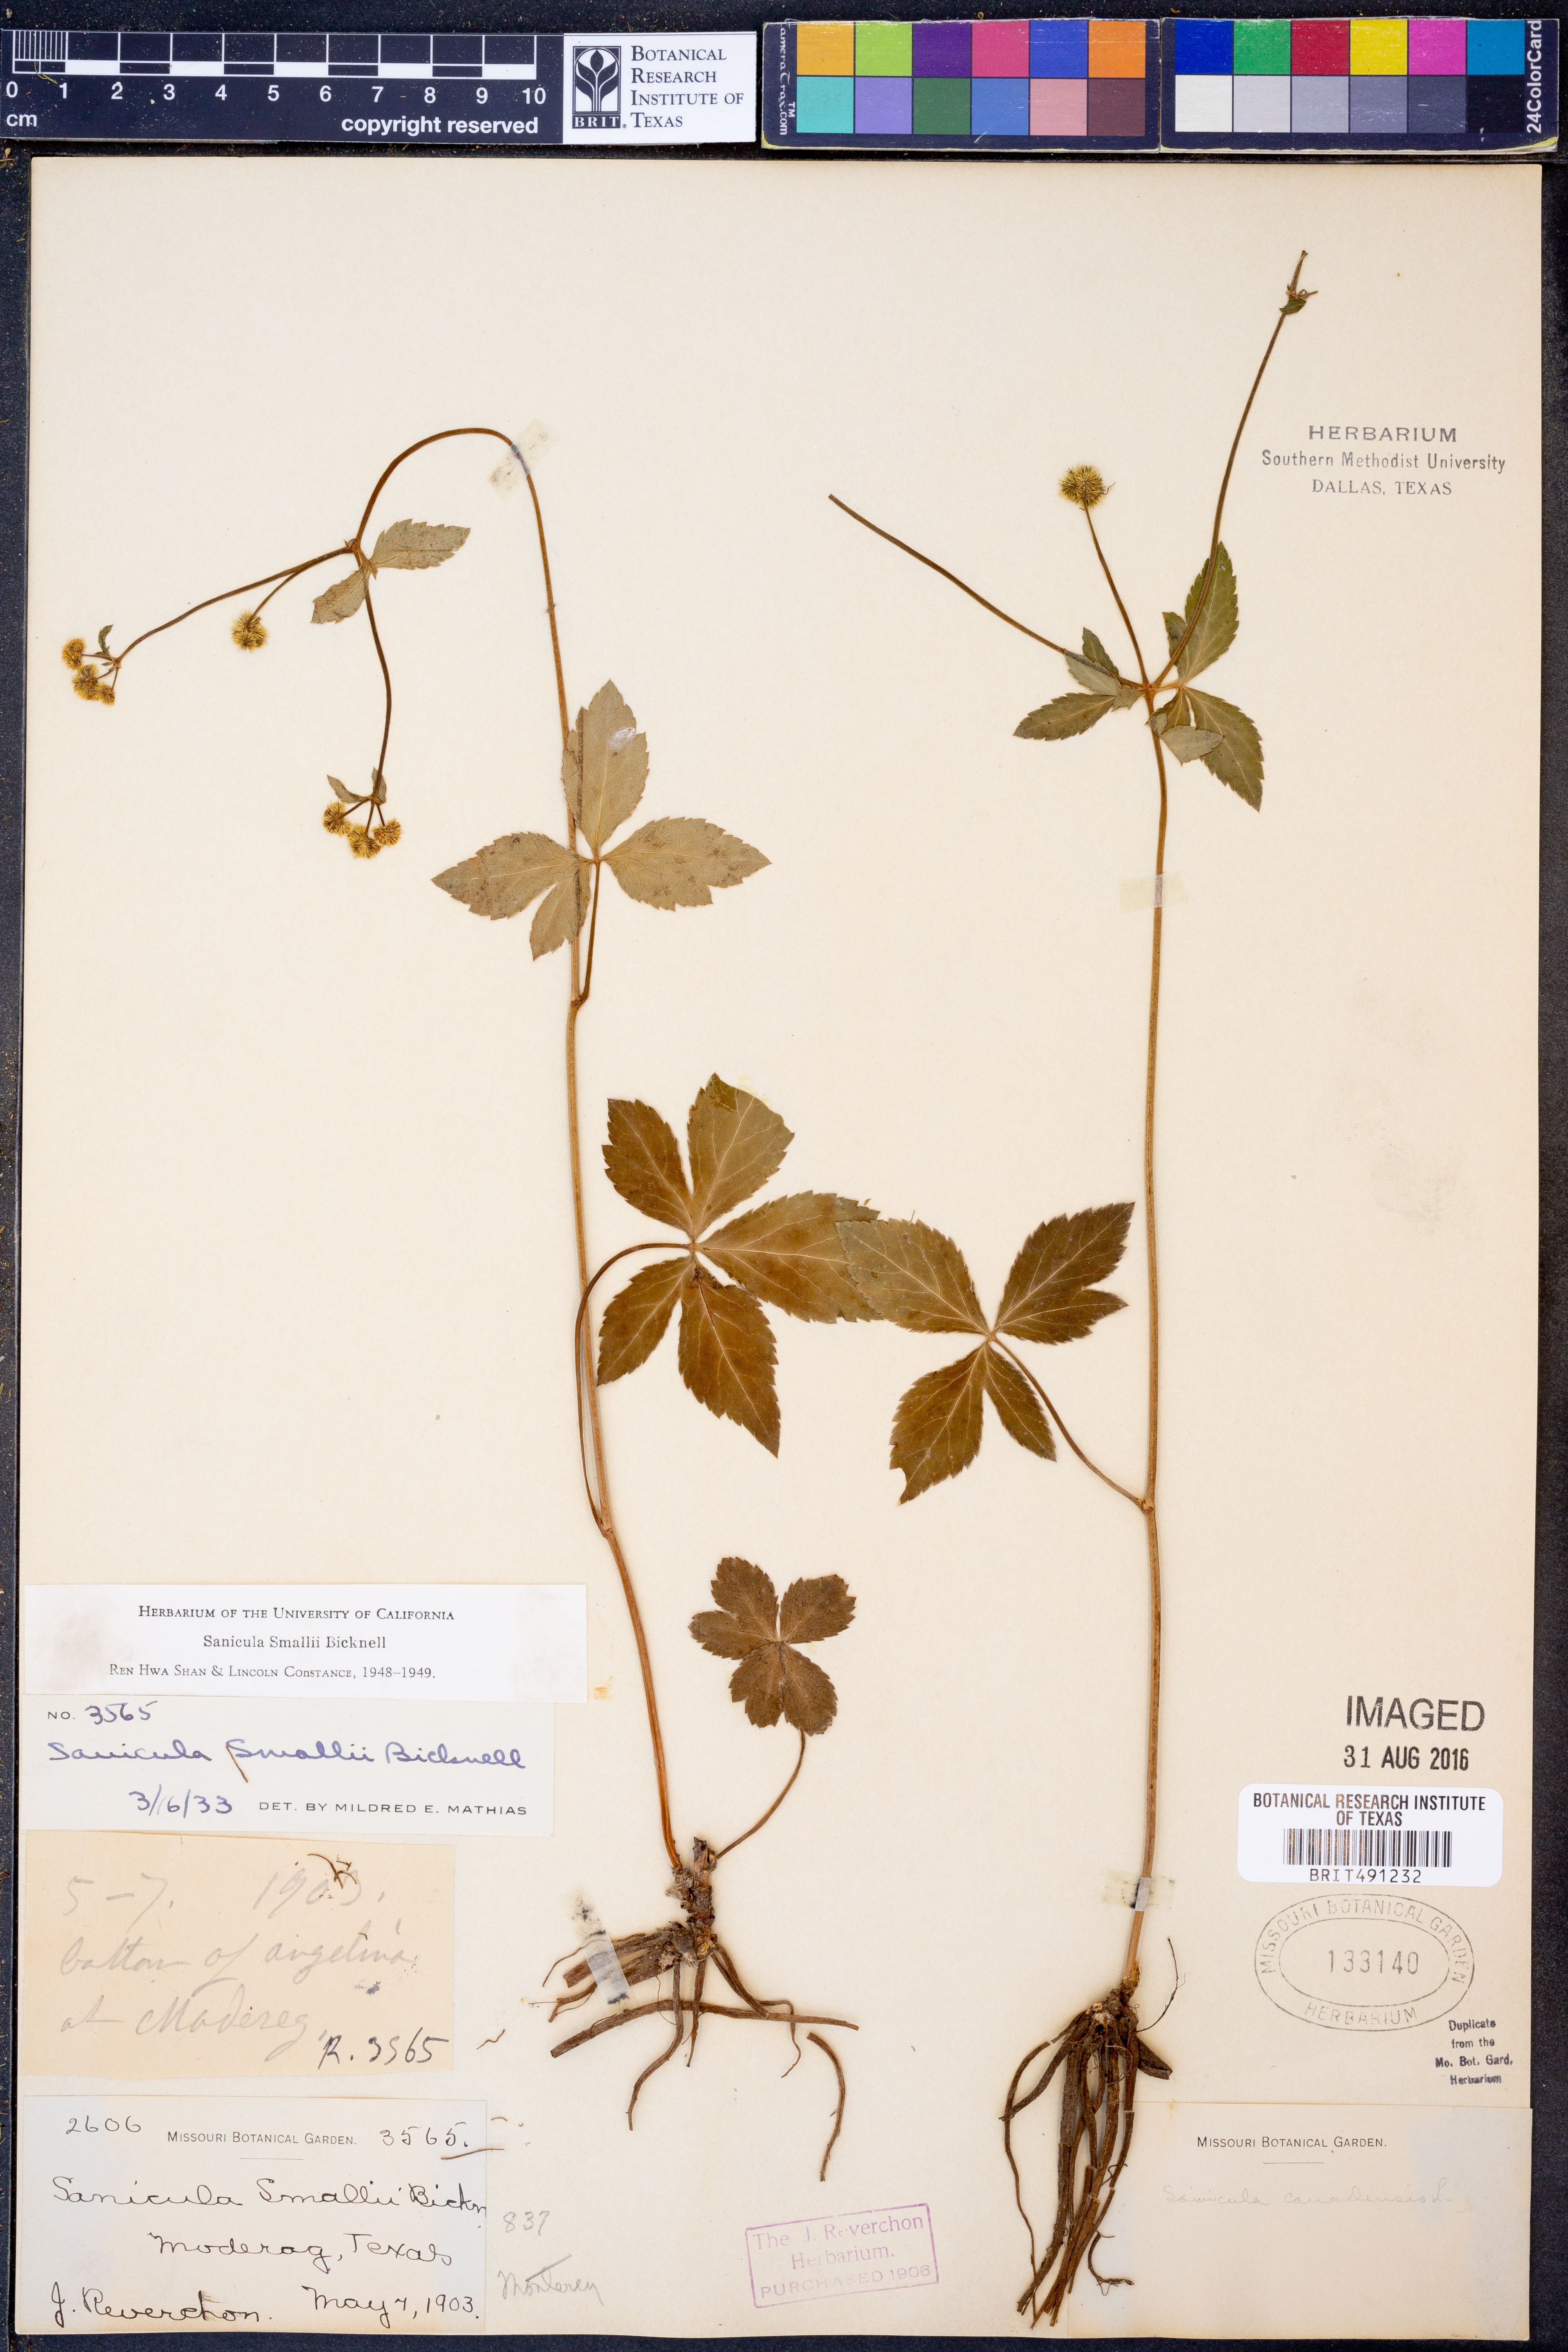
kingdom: Plantae
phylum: Tracheophyta
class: Magnoliopsida
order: Apiales
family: Apiaceae
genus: Sanicula
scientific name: Sanicula smallii
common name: Small's black snakeroot
